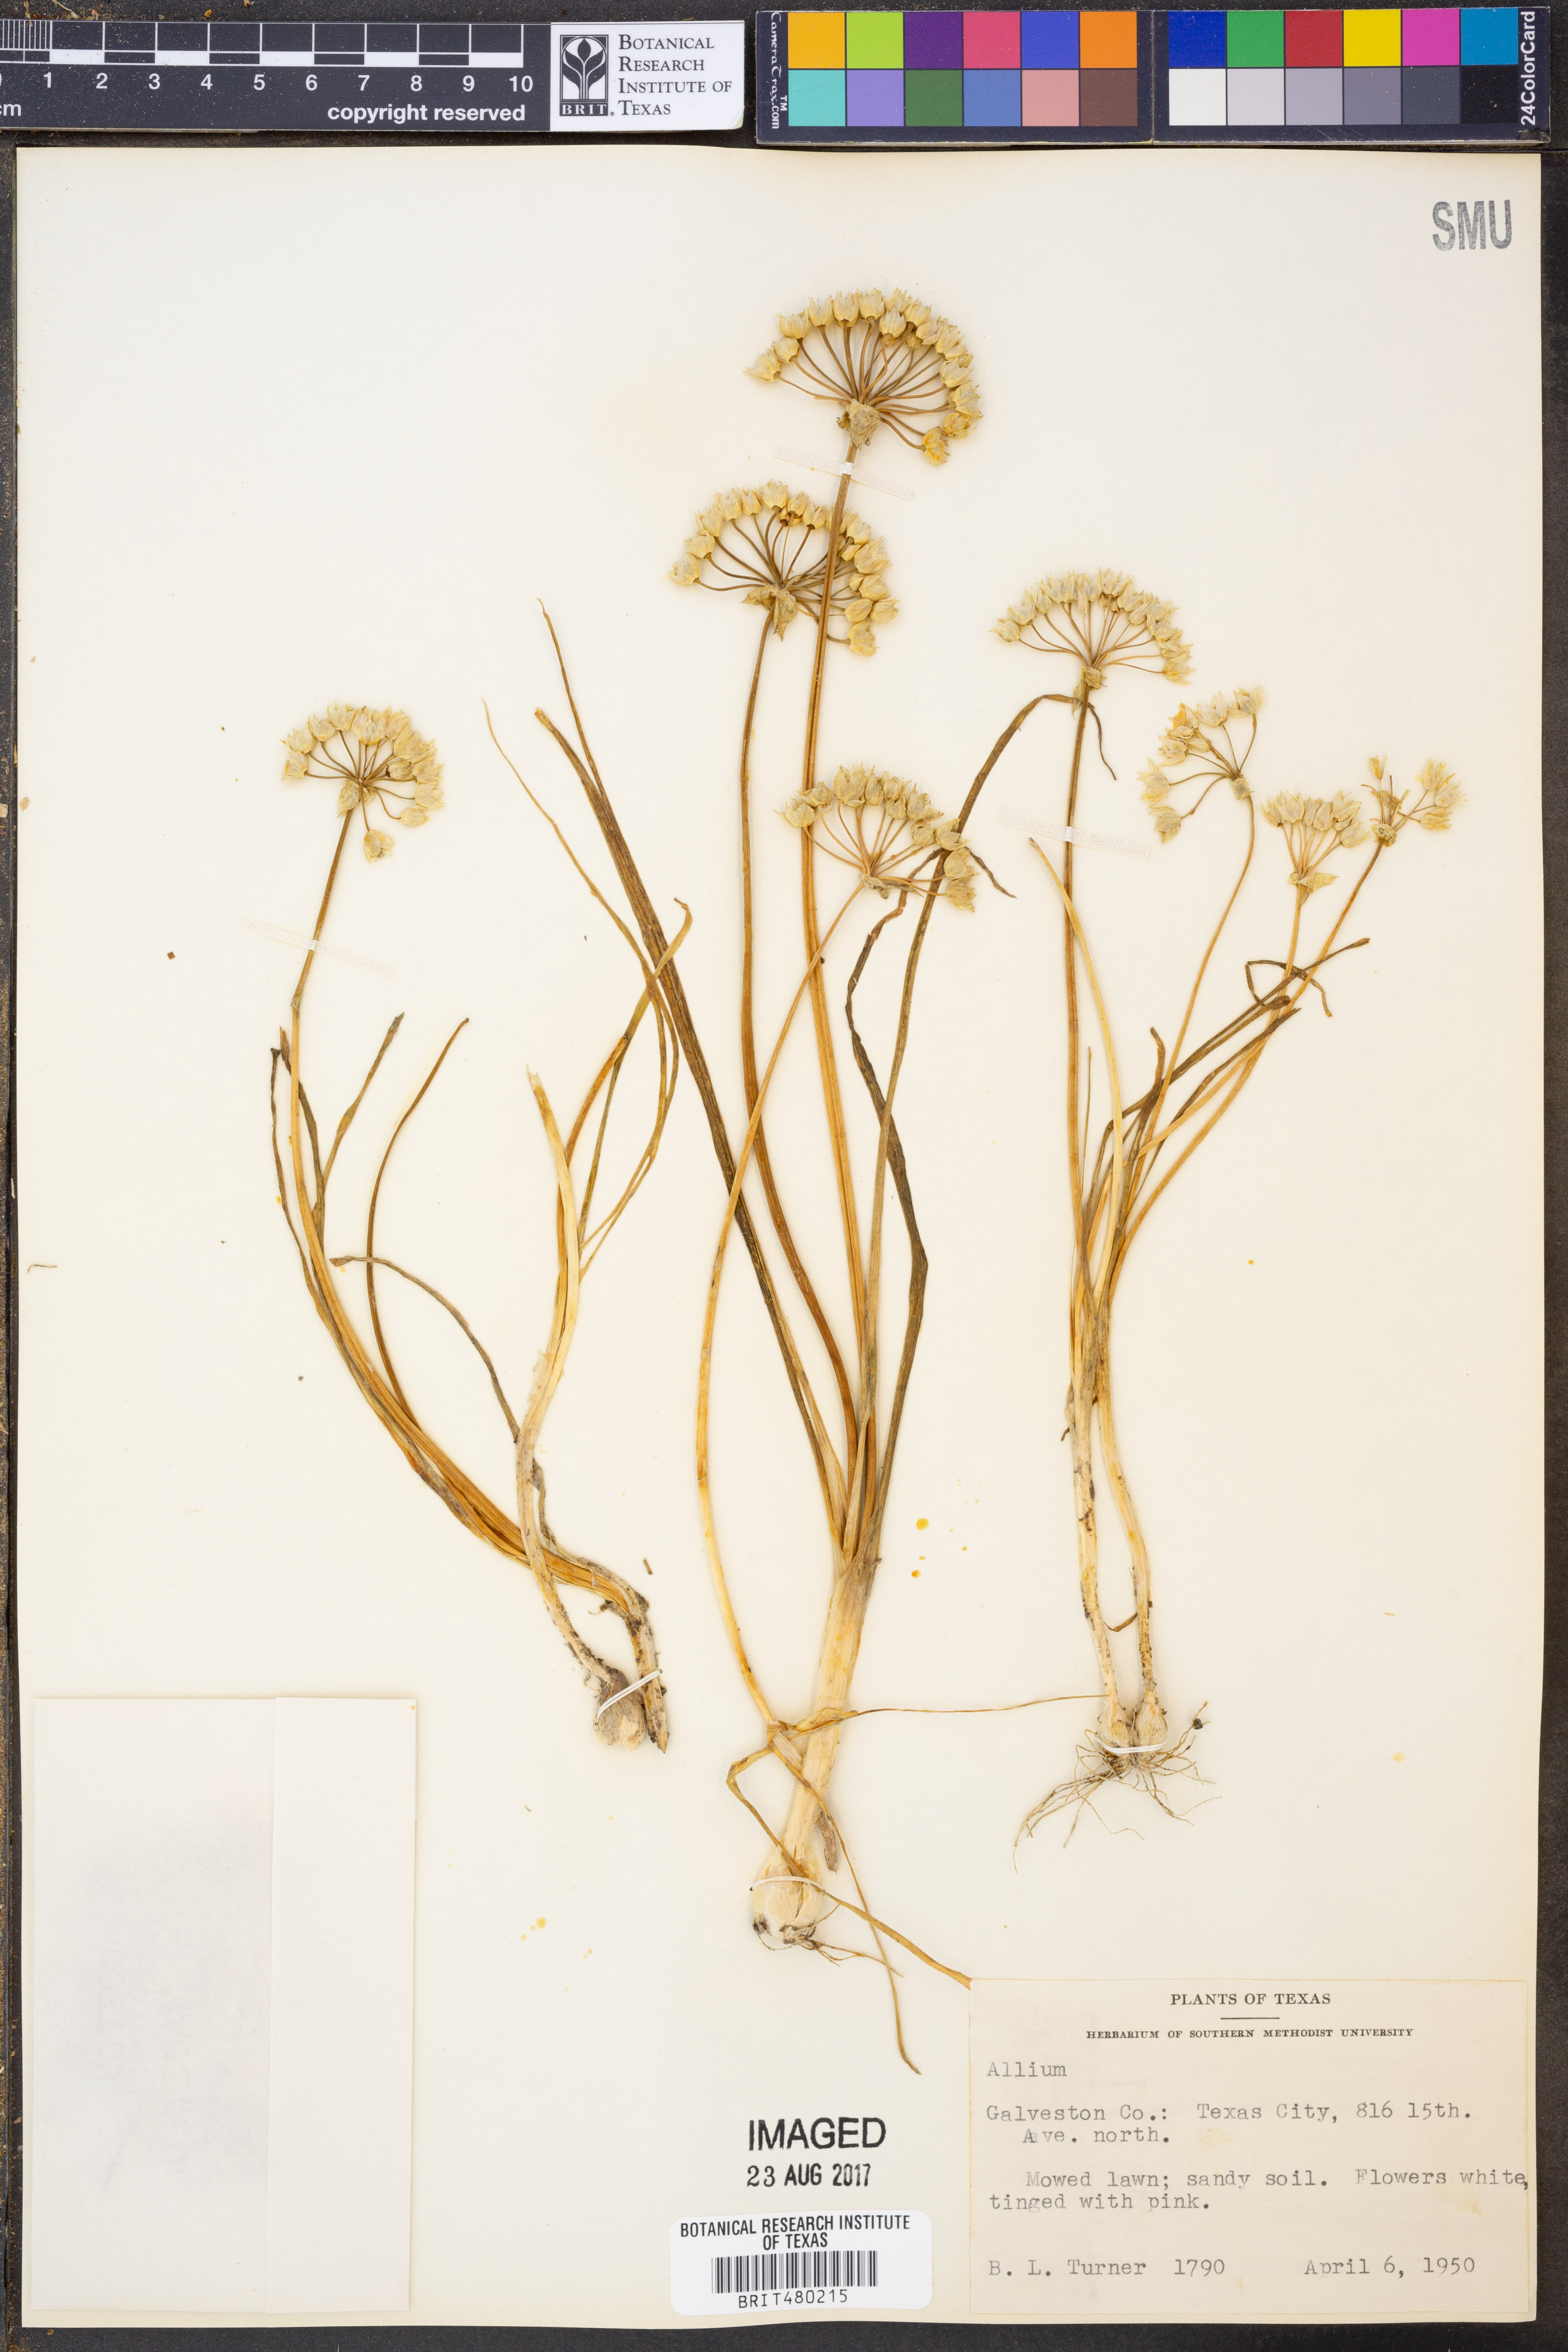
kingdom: Plantae
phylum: Tracheophyta
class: Liliopsida
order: Asparagales
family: Amaryllidaceae
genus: Allium
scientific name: Allium
